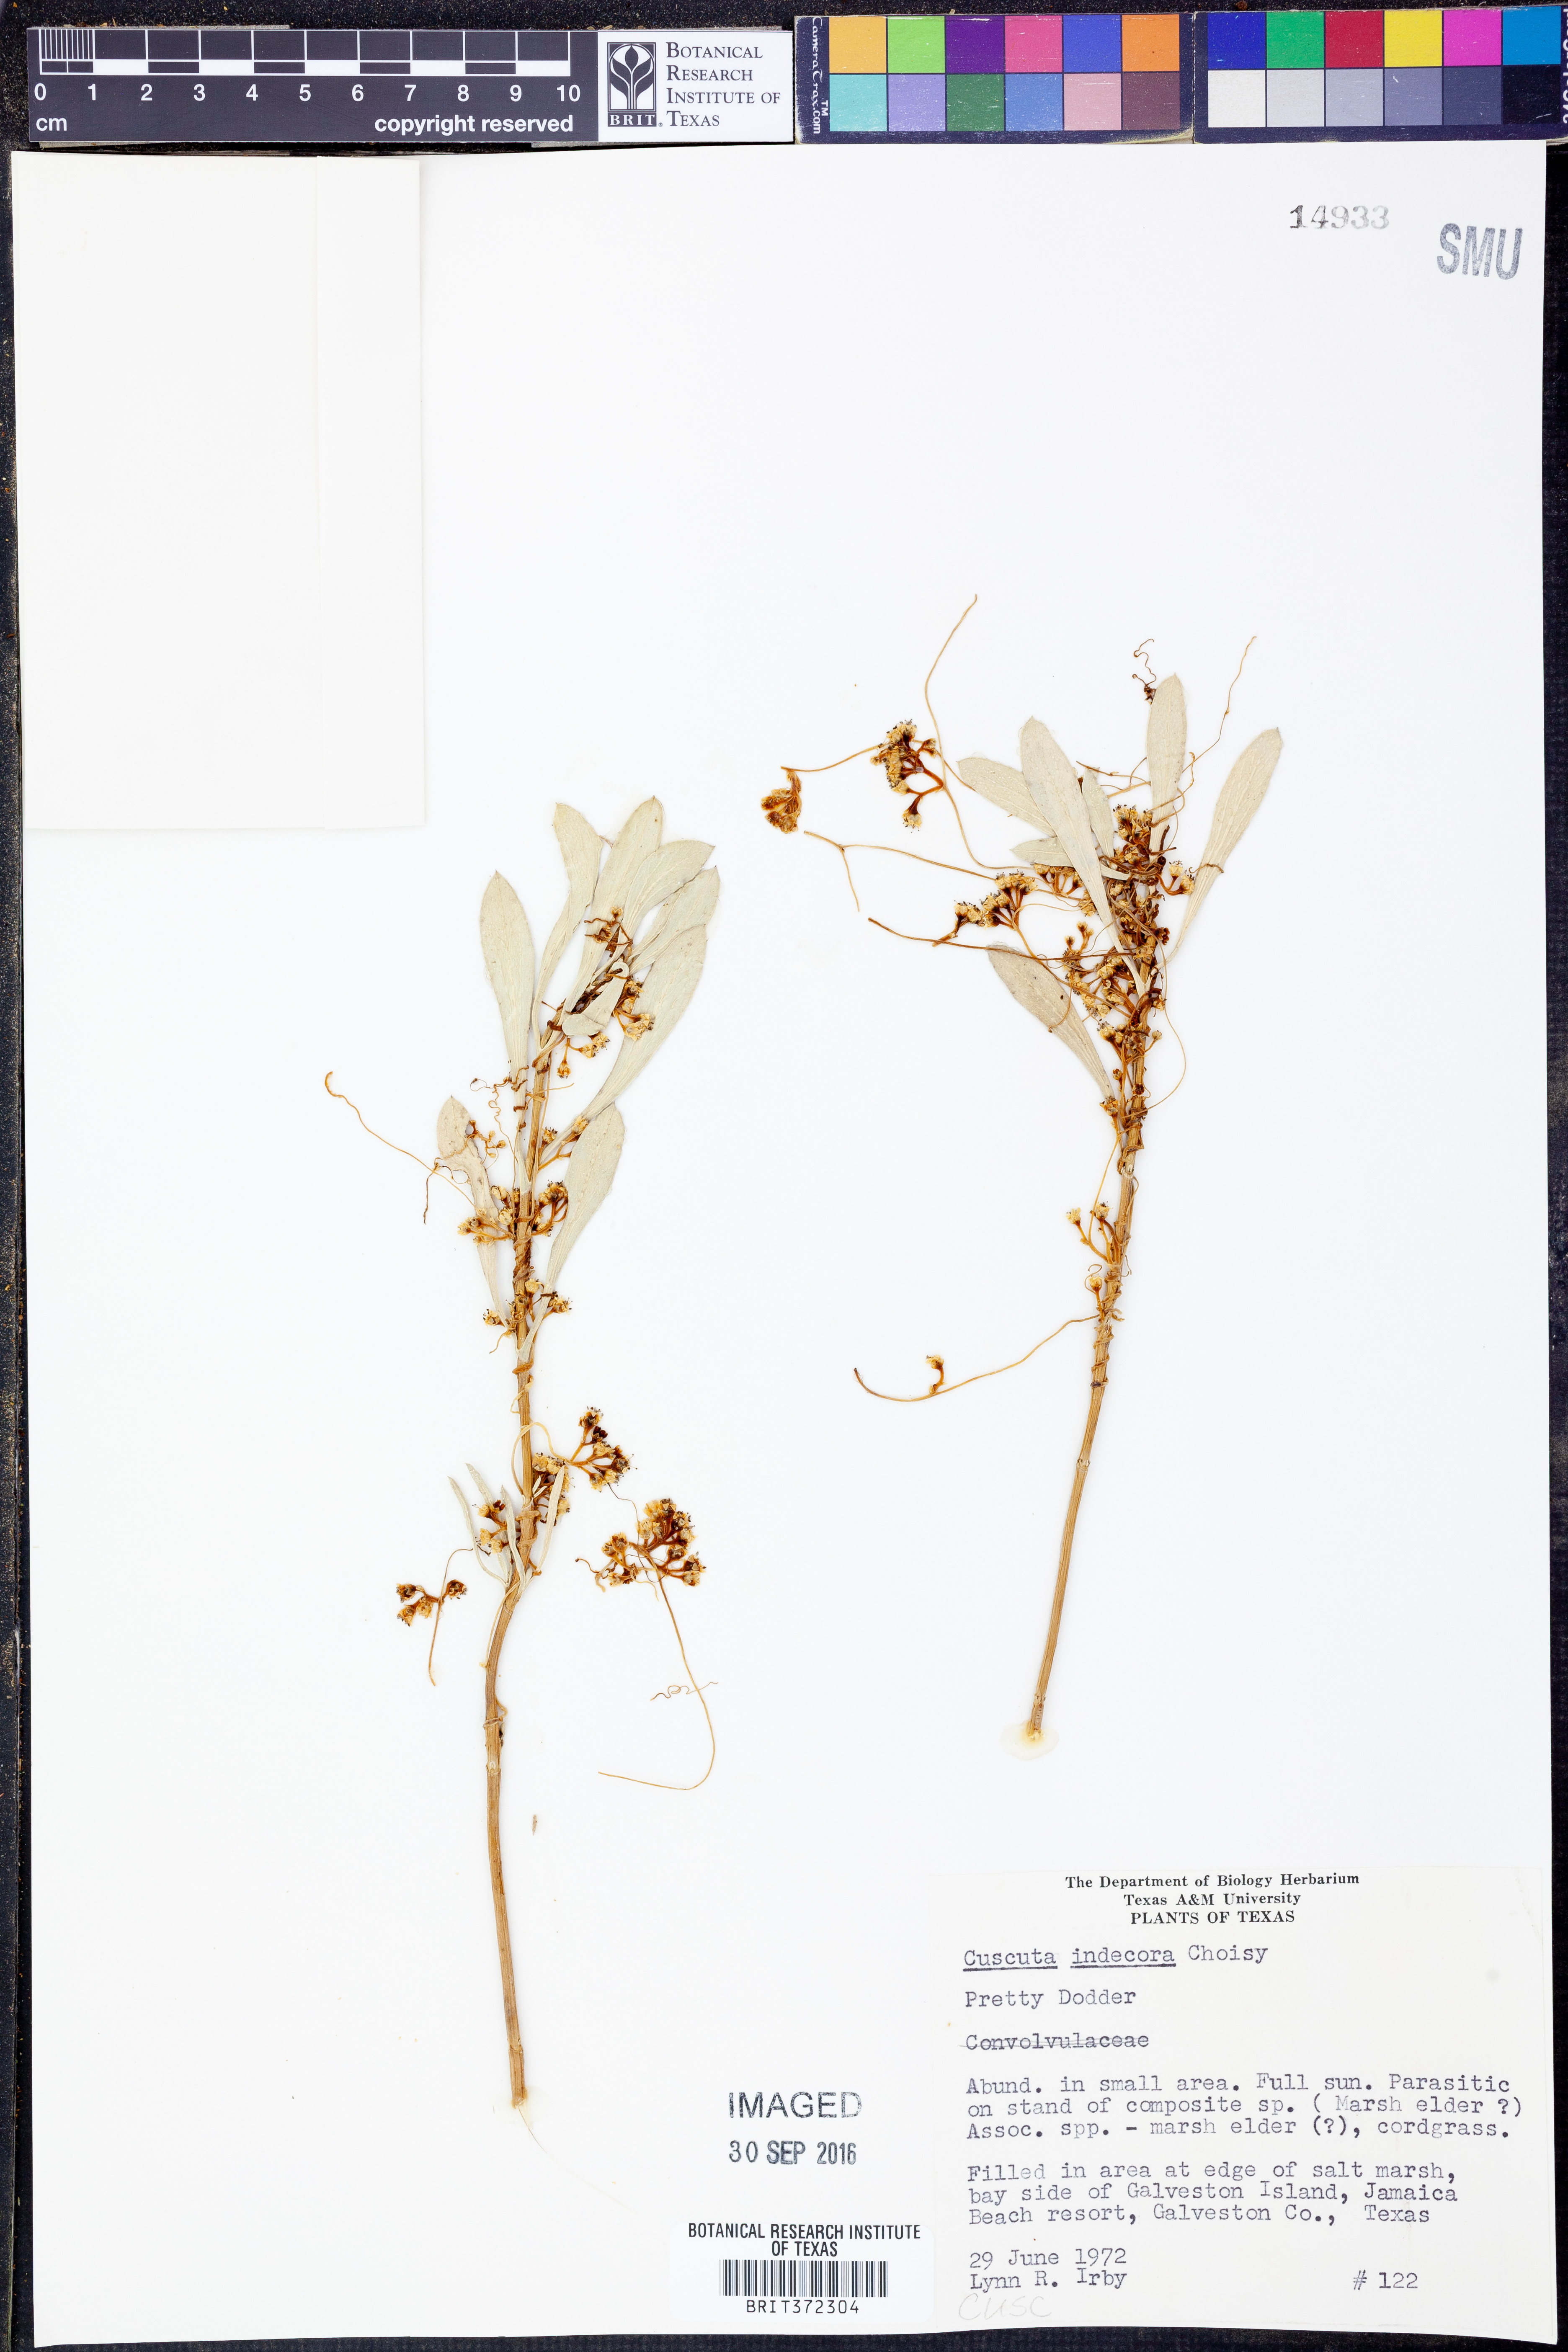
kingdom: Plantae
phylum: Tracheophyta
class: Magnoliopsida
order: Solanales
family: Convolvulaceae
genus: Cuscuta
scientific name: Cuscuta indecora
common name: Large-seed dodder
